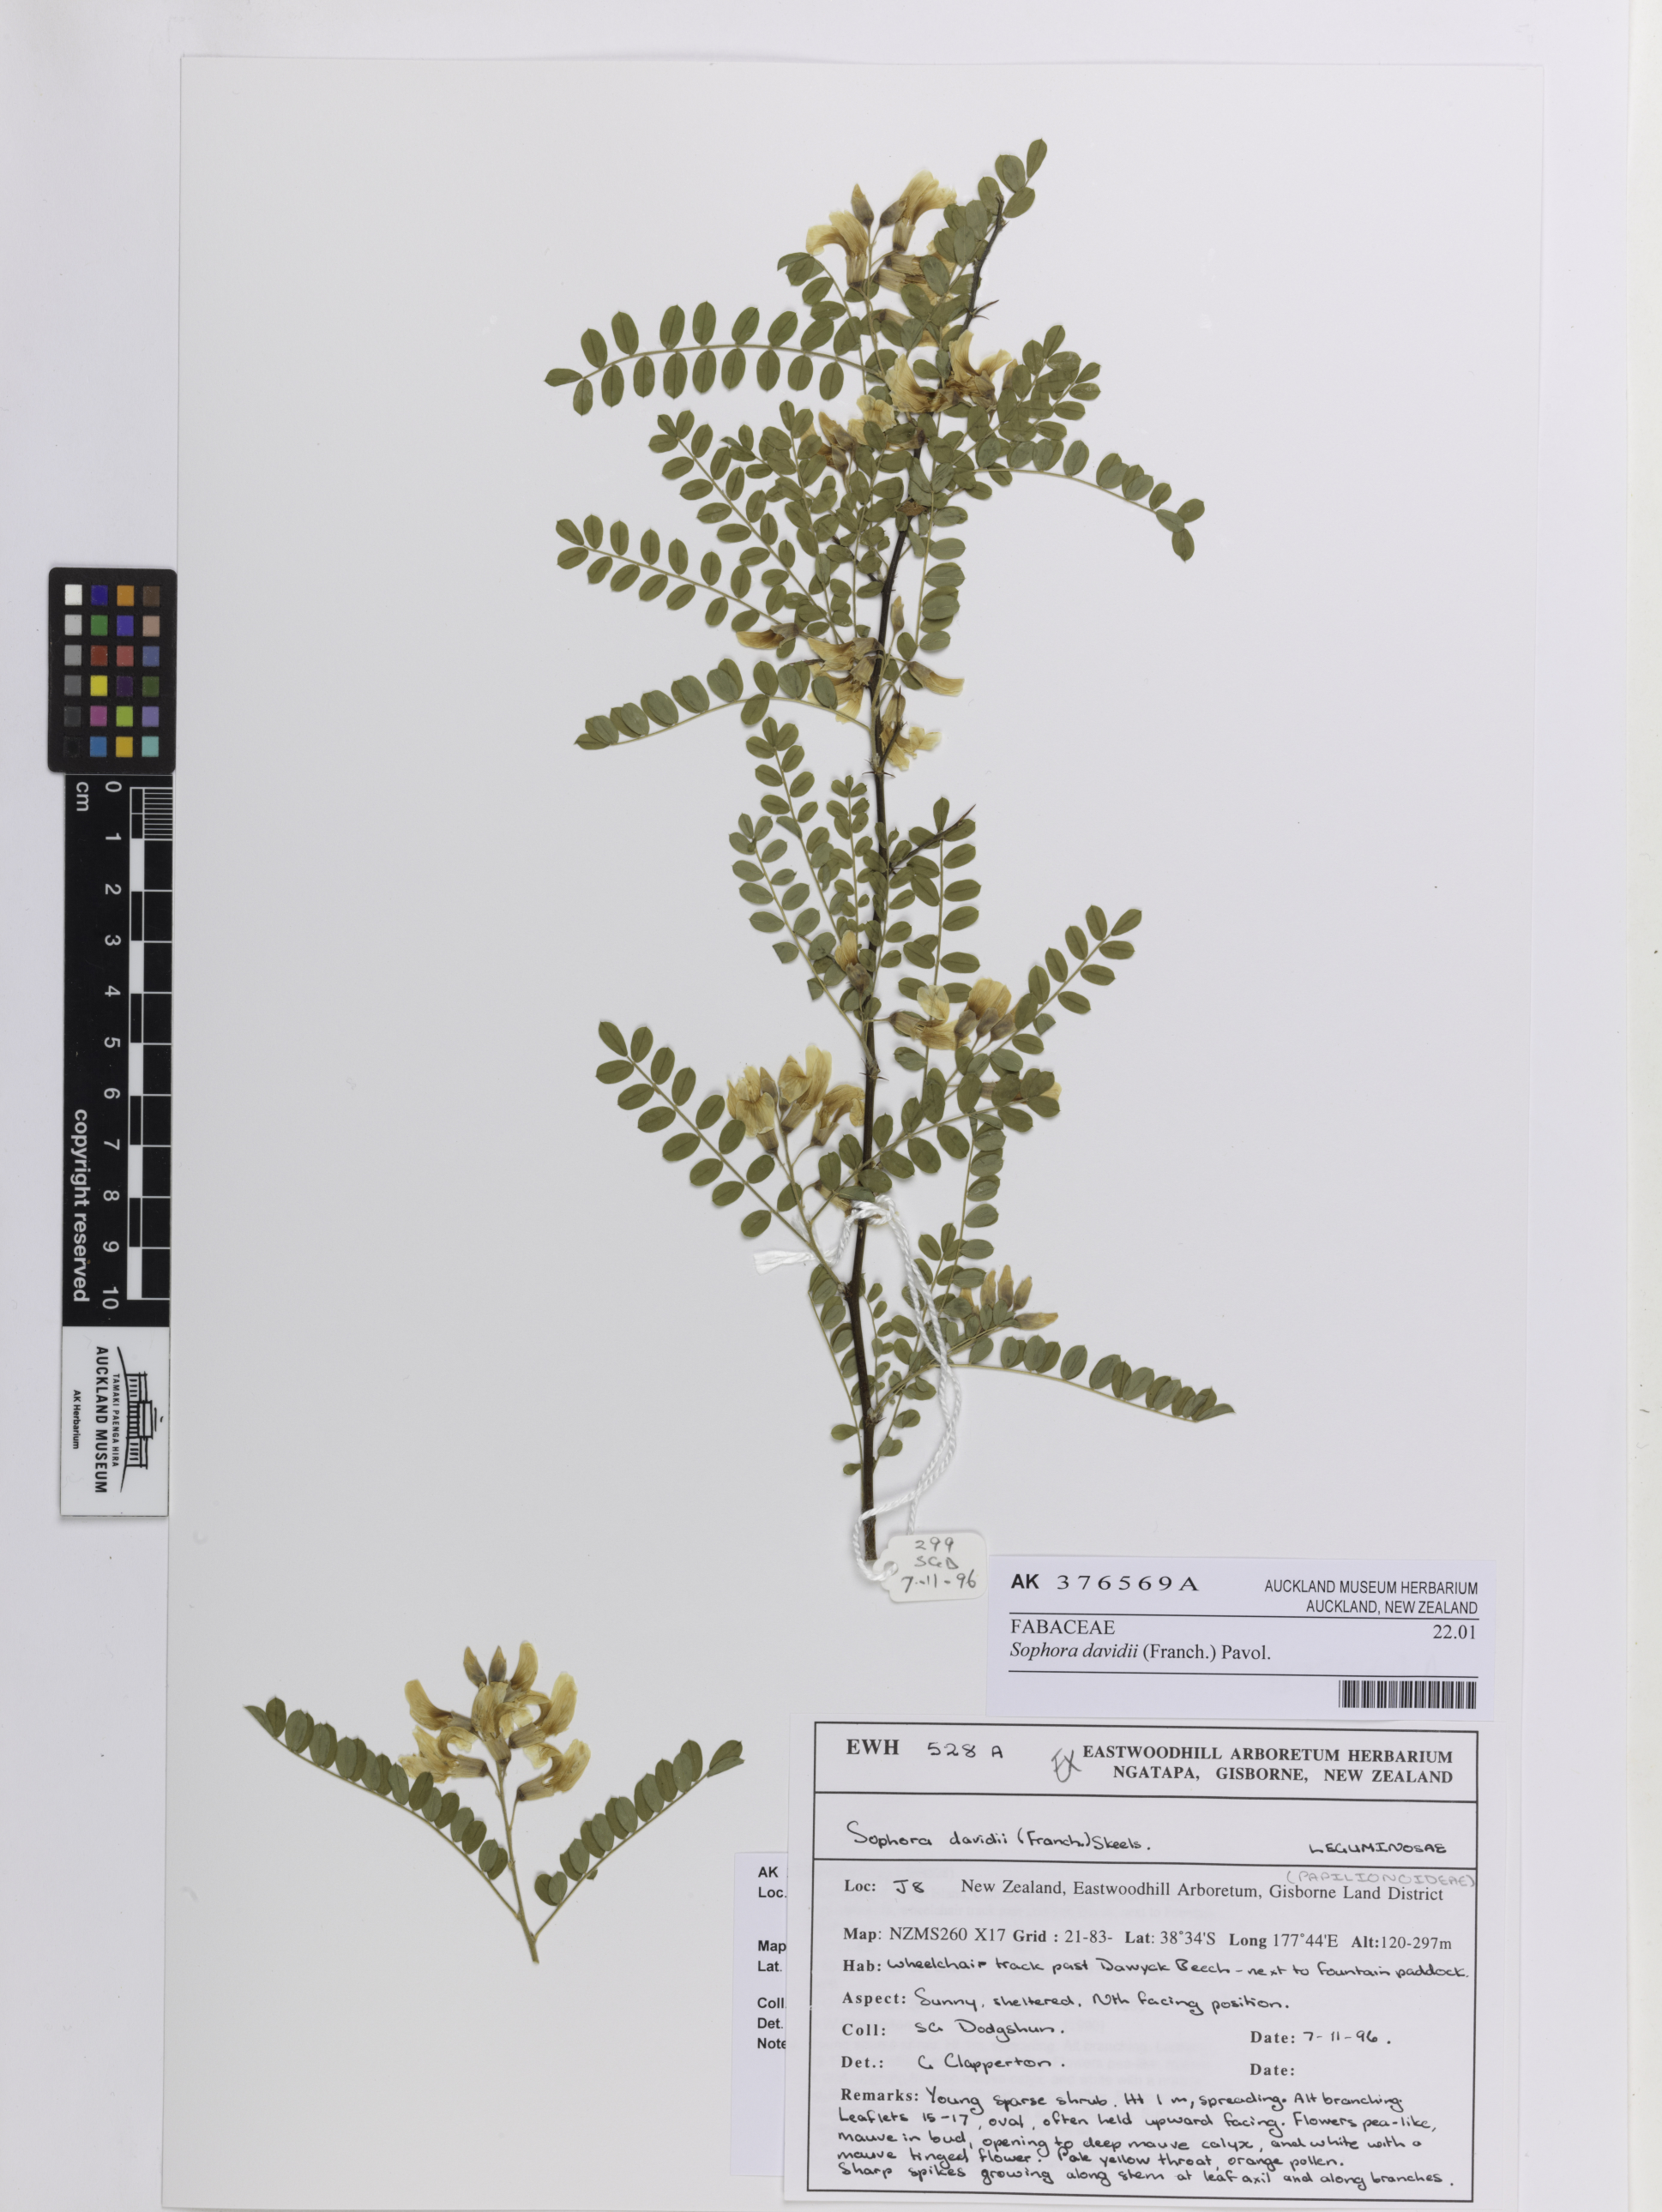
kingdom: Plantae
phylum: Tracheophyta
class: Magnoliopsida
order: Fabales
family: Fabaceae
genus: Sophora
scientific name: Sophora davidii
